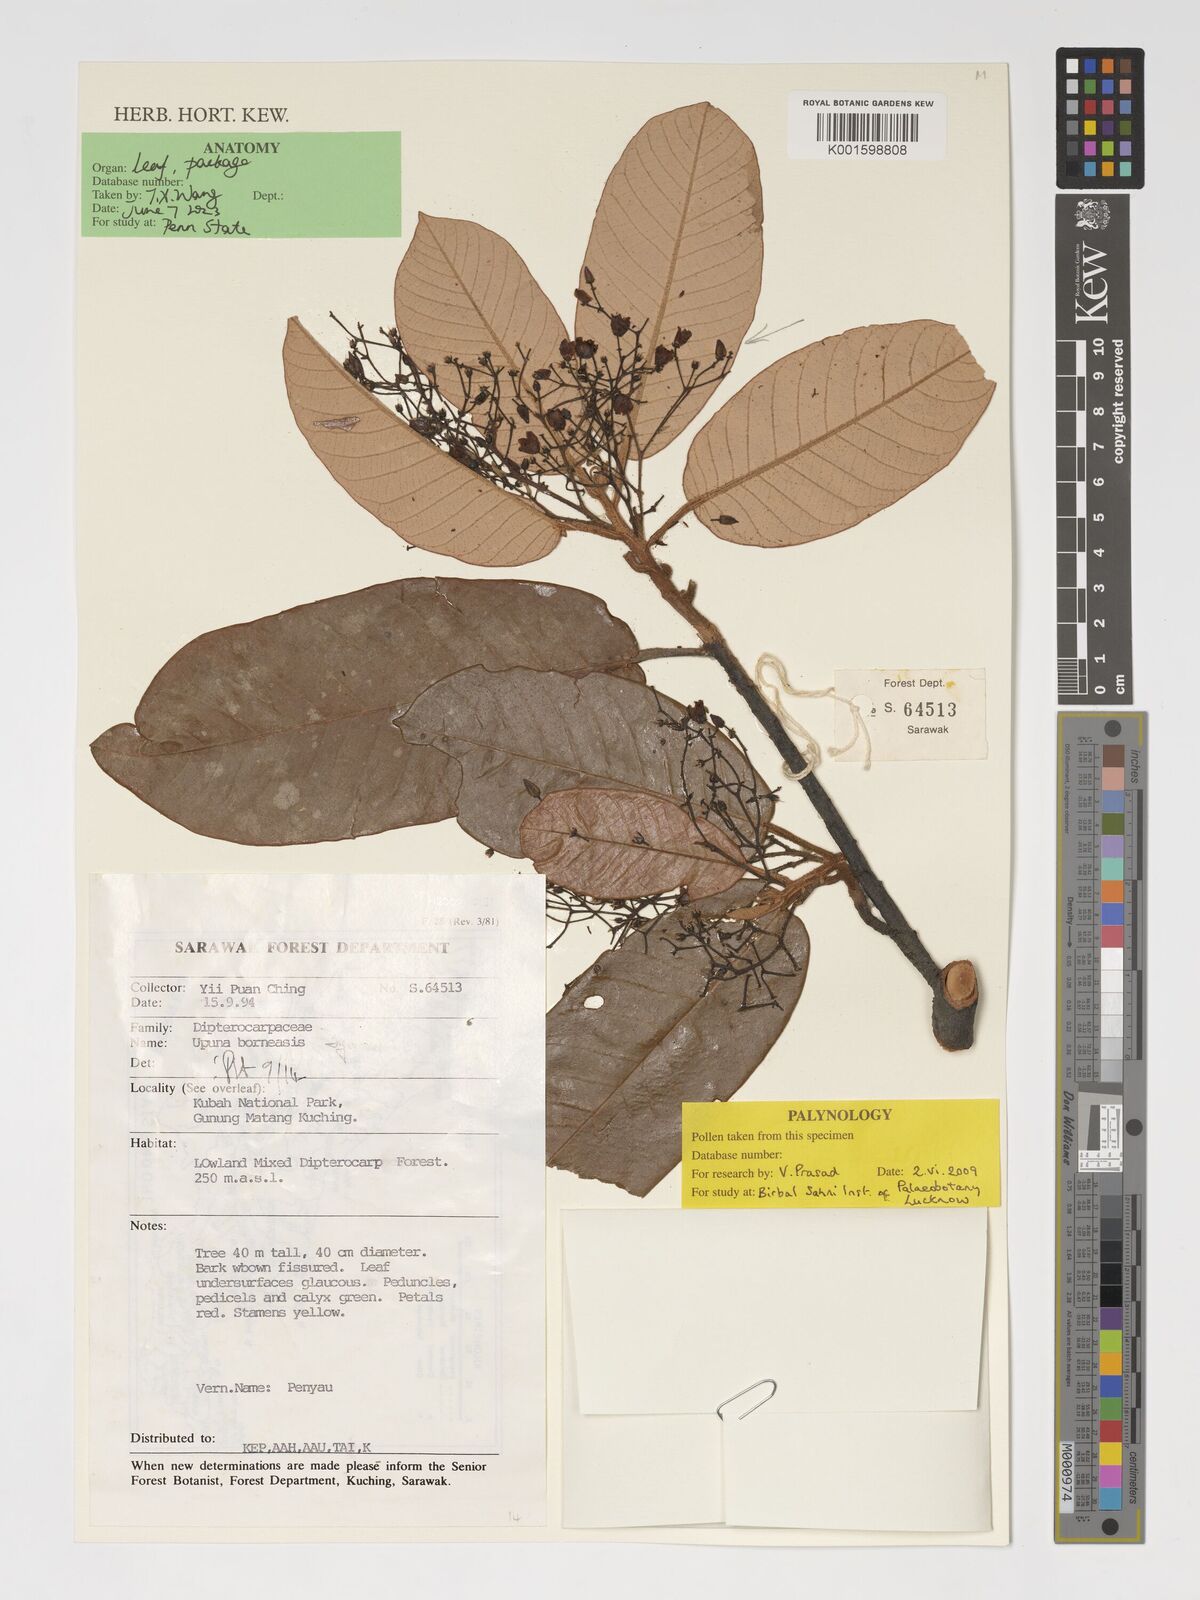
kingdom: Plantae
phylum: Tracheophyta
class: Magnoliopsida
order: Malvales
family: Dipterocarpaceae
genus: Upuna
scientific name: Upuna borneensis
